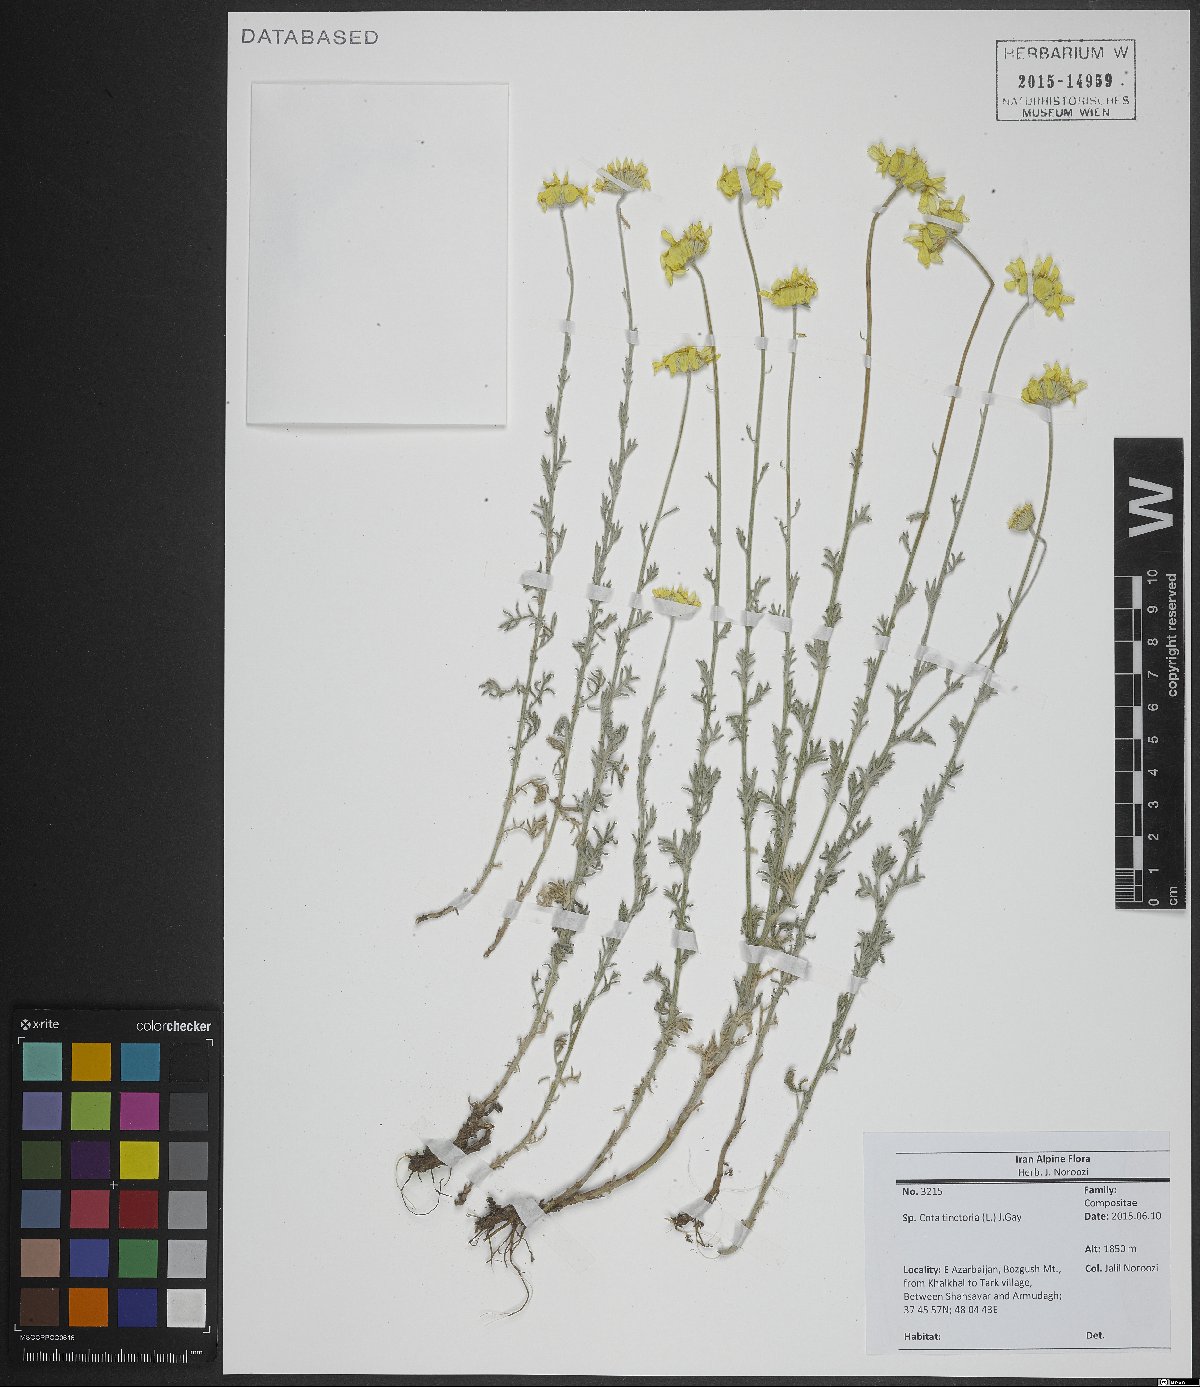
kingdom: Plantae
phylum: Tracheophyta
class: Magnoliopsida
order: Asterales
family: Asteraceae
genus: Cota
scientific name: Cota tinctoria
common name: Golden chamomile
